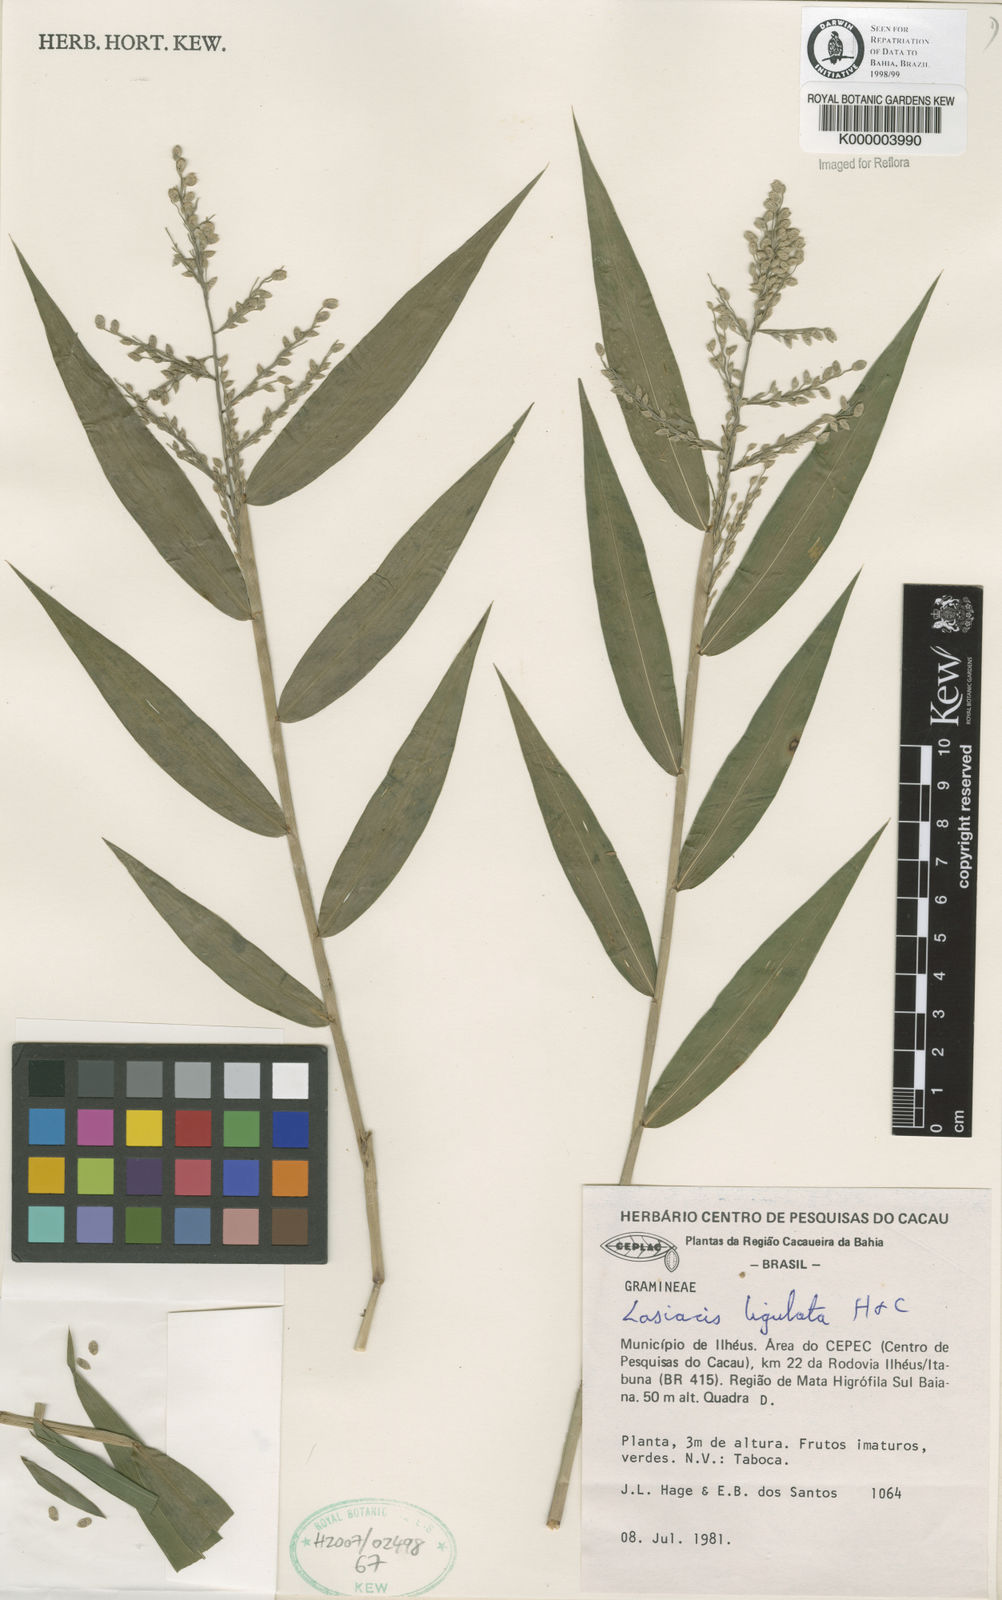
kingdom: Plantae
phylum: Tracheophyta
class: Liliopsida
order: Poales
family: Poaceae
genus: Lasiacis
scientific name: Lasiacis ligulata
